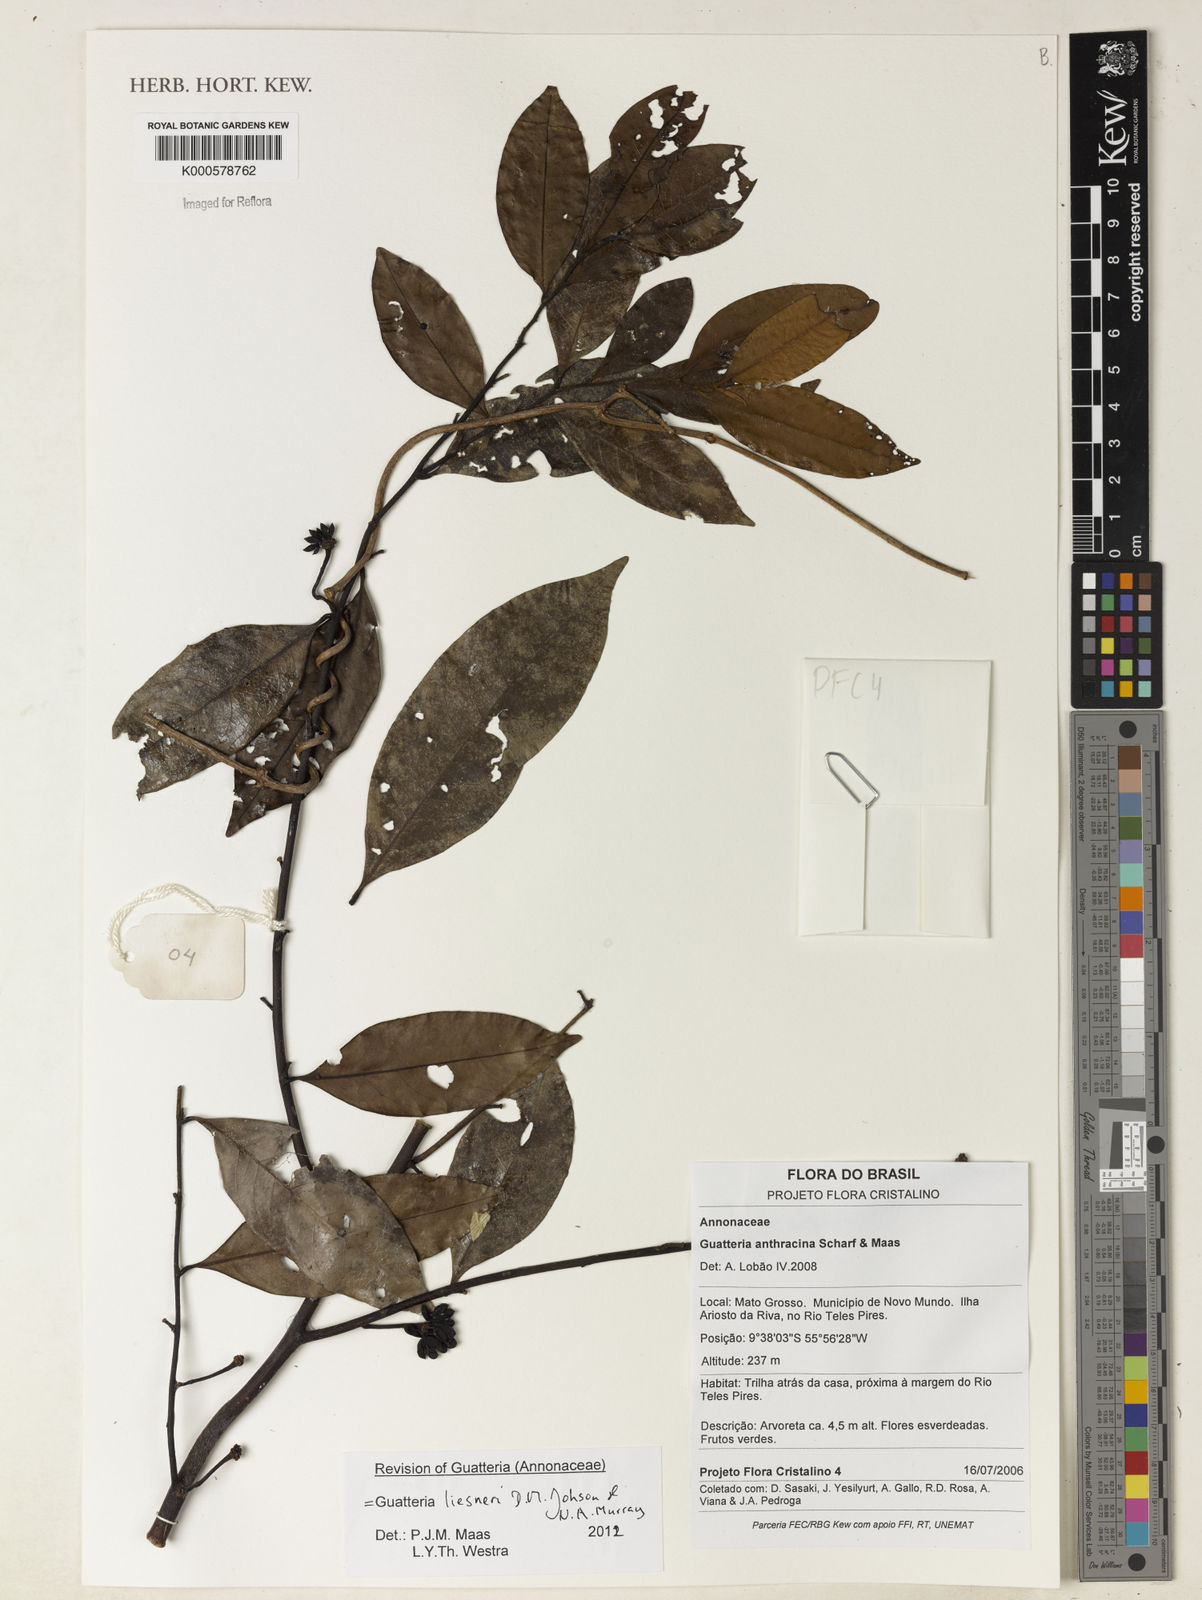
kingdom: Plantae
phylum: Tracheophyta
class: Magnoliopsida
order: Magnoliales
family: Annonaceae
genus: Guatteria
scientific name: Guatteria anthracina
